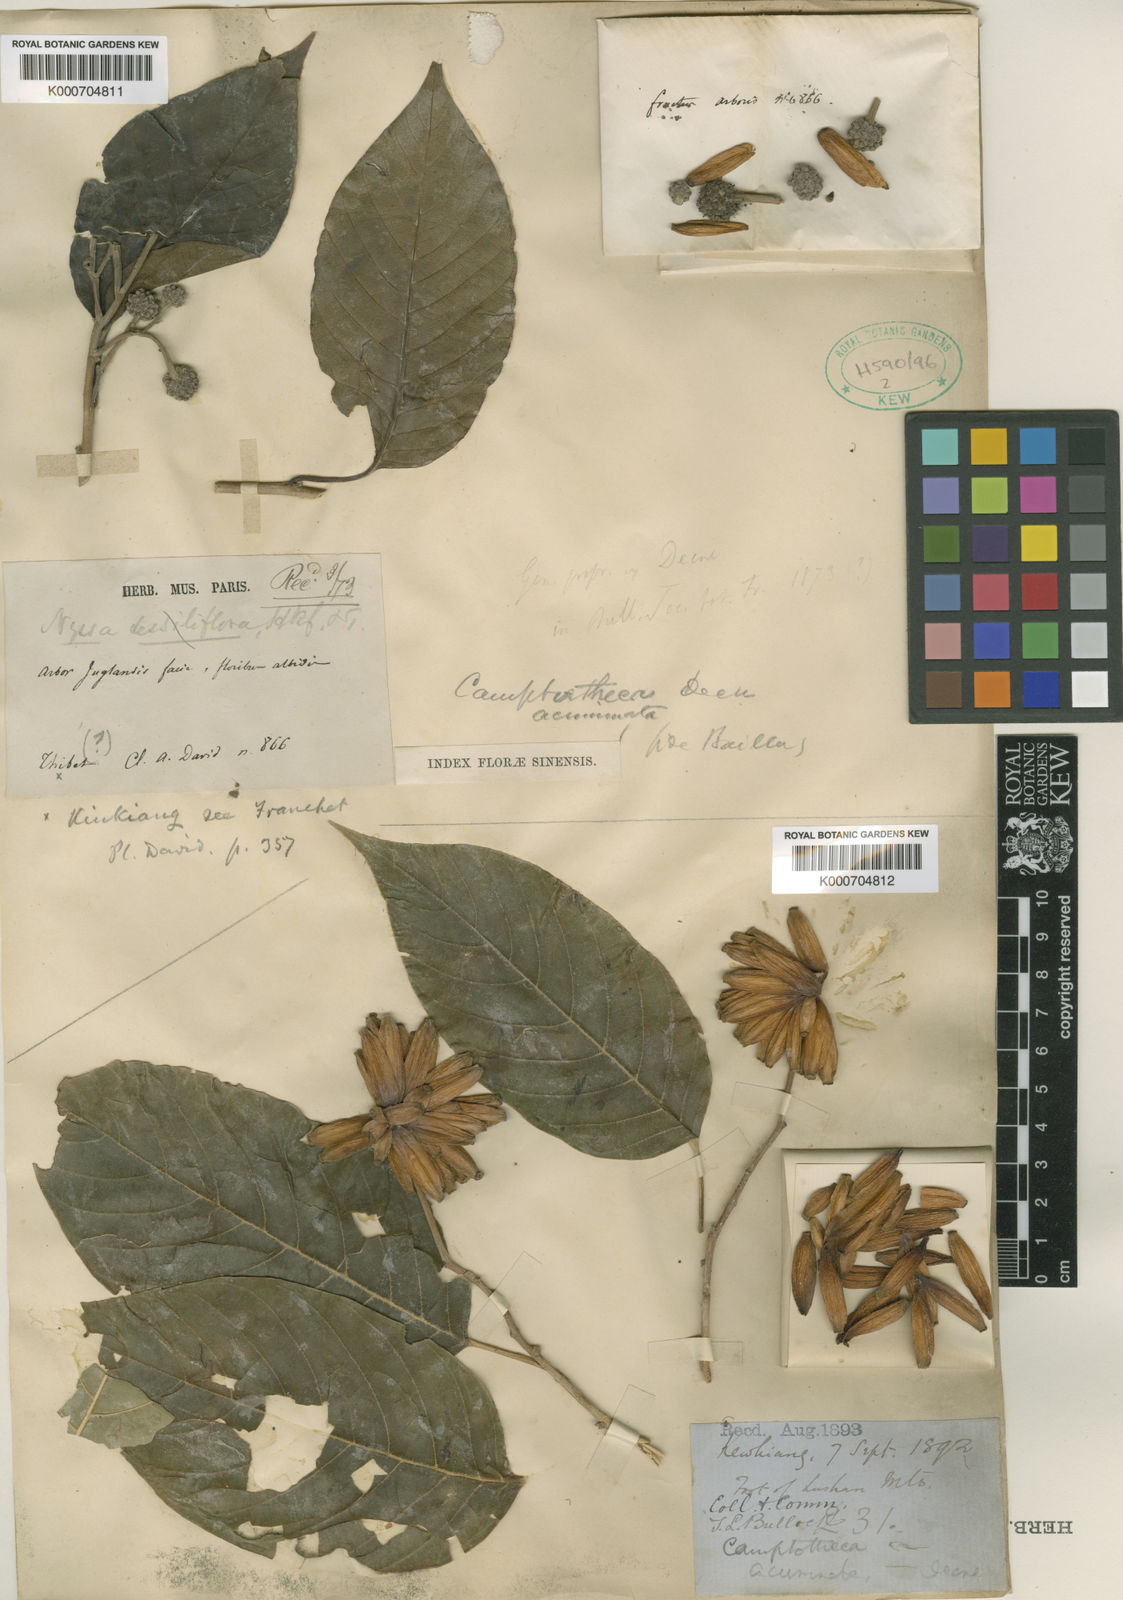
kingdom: Plantae
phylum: Tracheophyta
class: Magnoliopsida
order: Cornales
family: Nyssaceae
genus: Camptotheca
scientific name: Camptotheca acuminata
